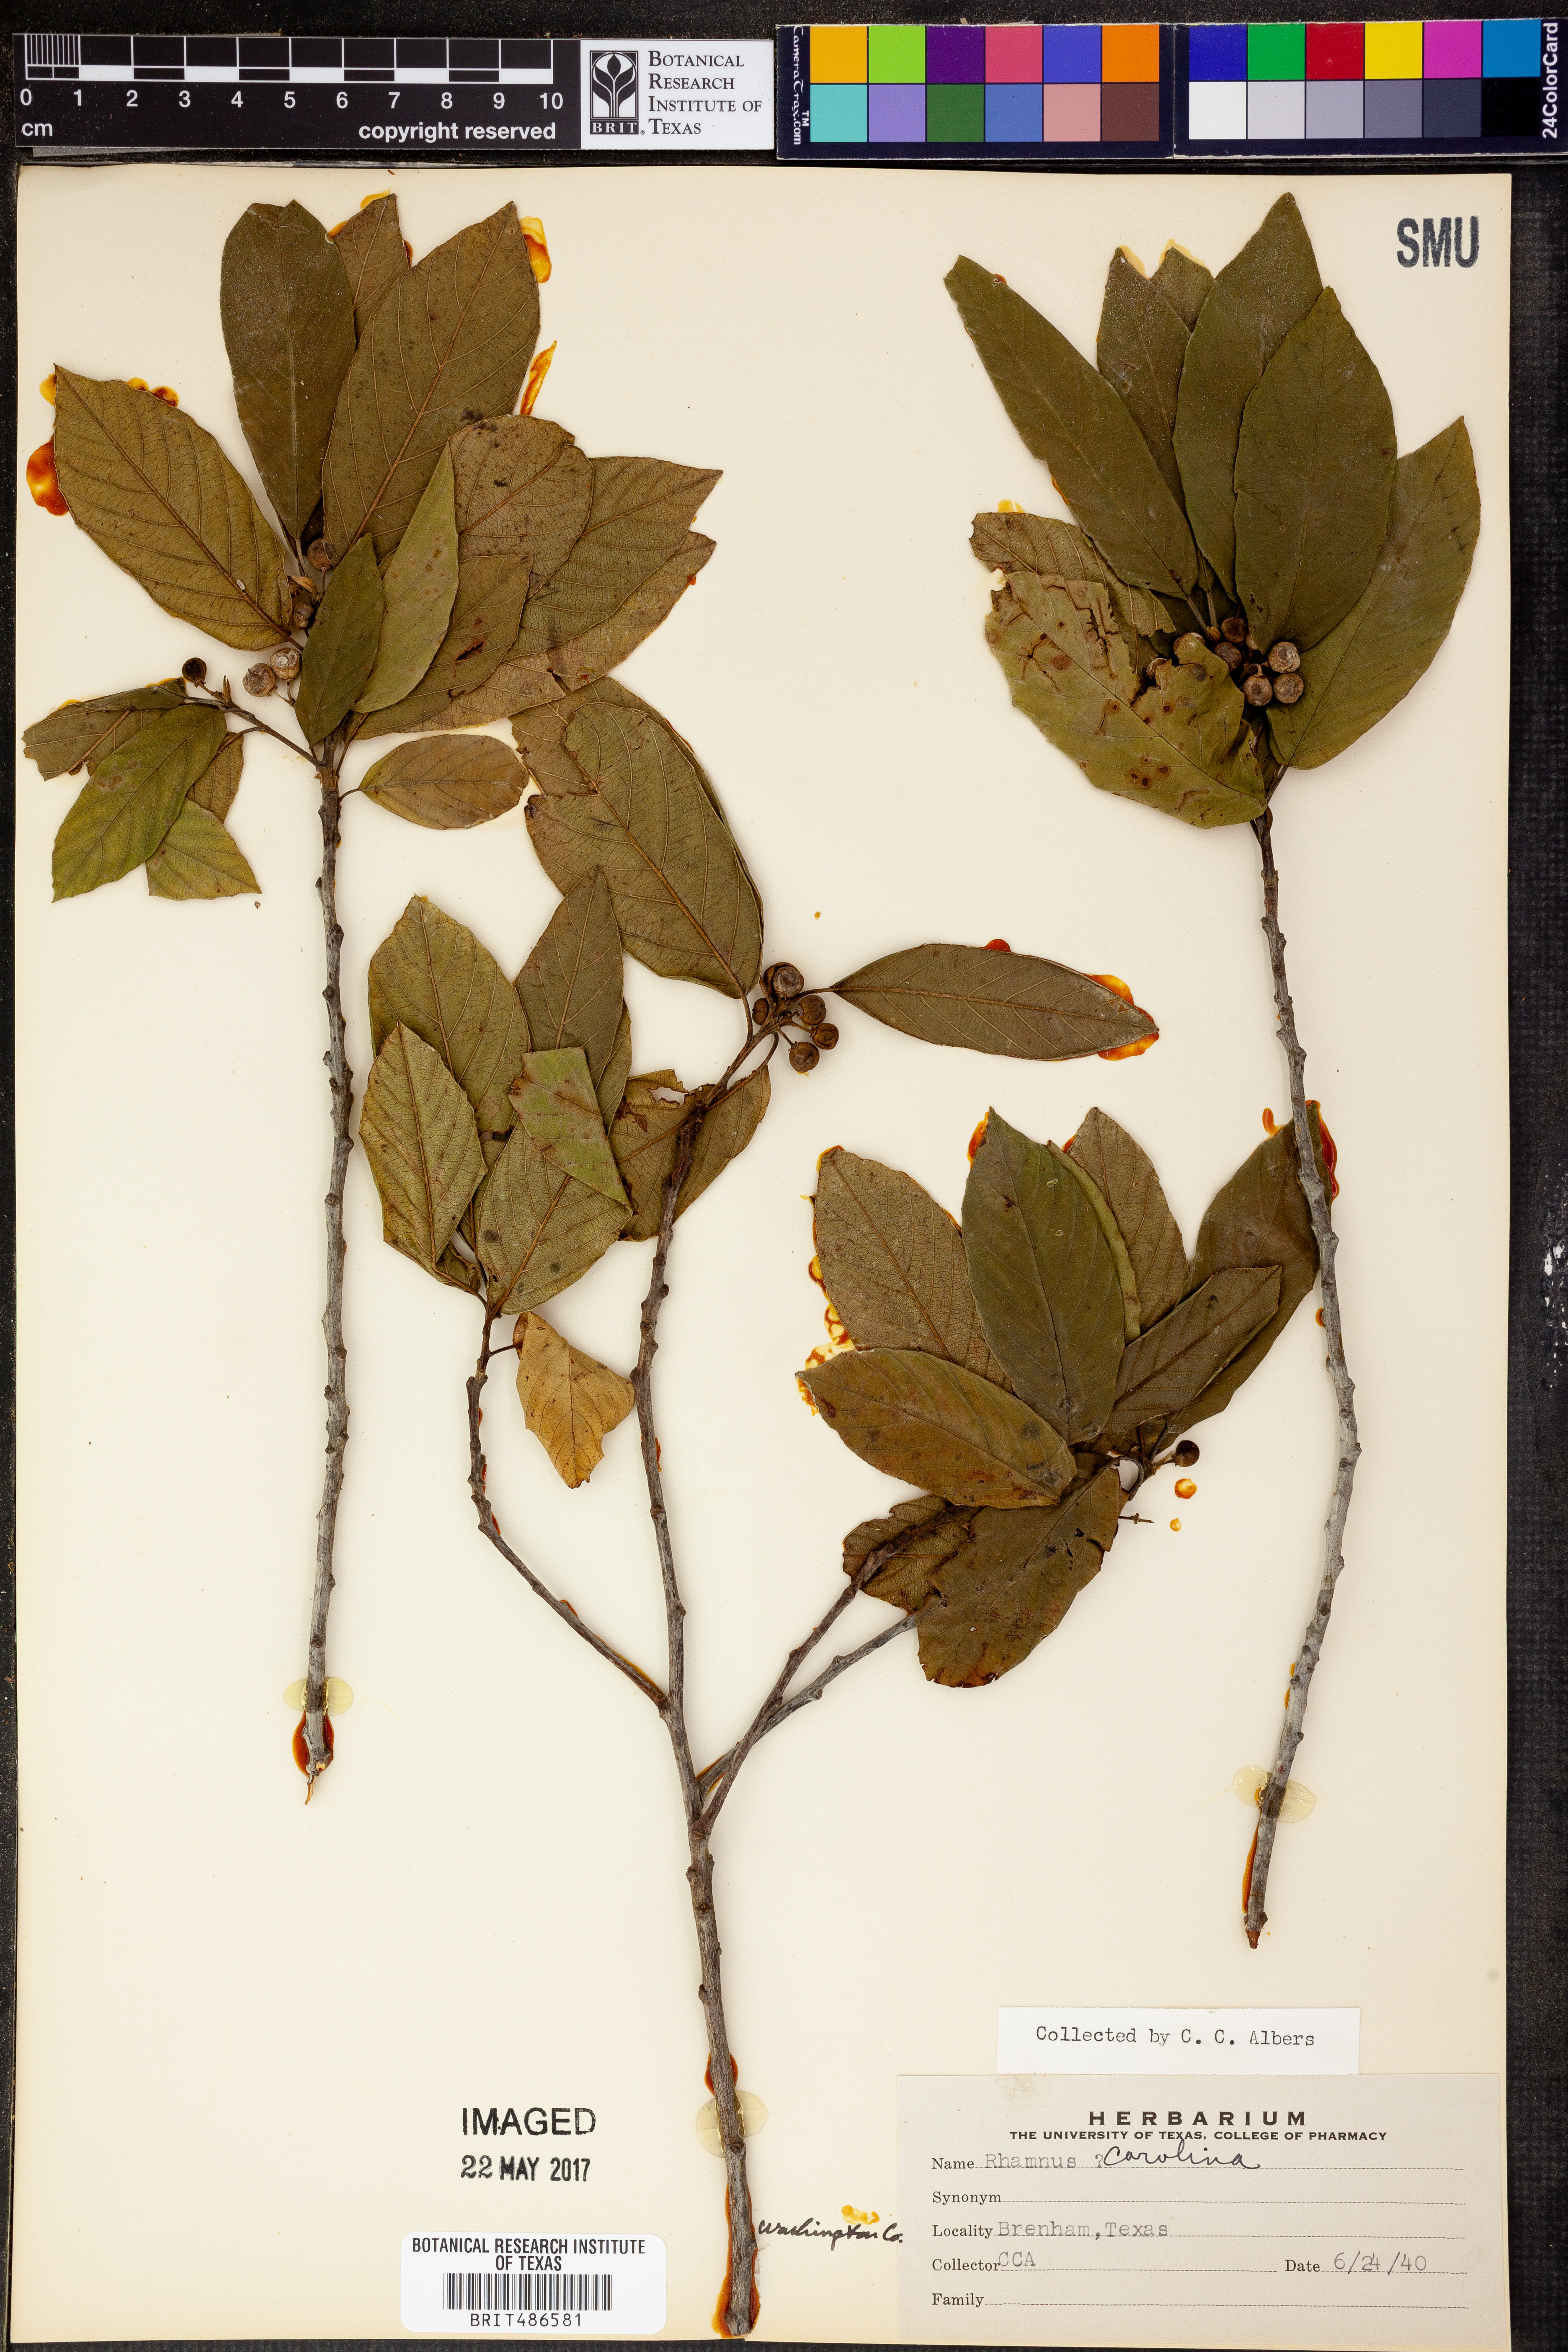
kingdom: Plantae
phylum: Tracheophyta
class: Magnoliopsida
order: Rosales
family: Rhamnaceae
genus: Frangula
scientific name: Frangula caroliniana
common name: Carolina buckthorn
